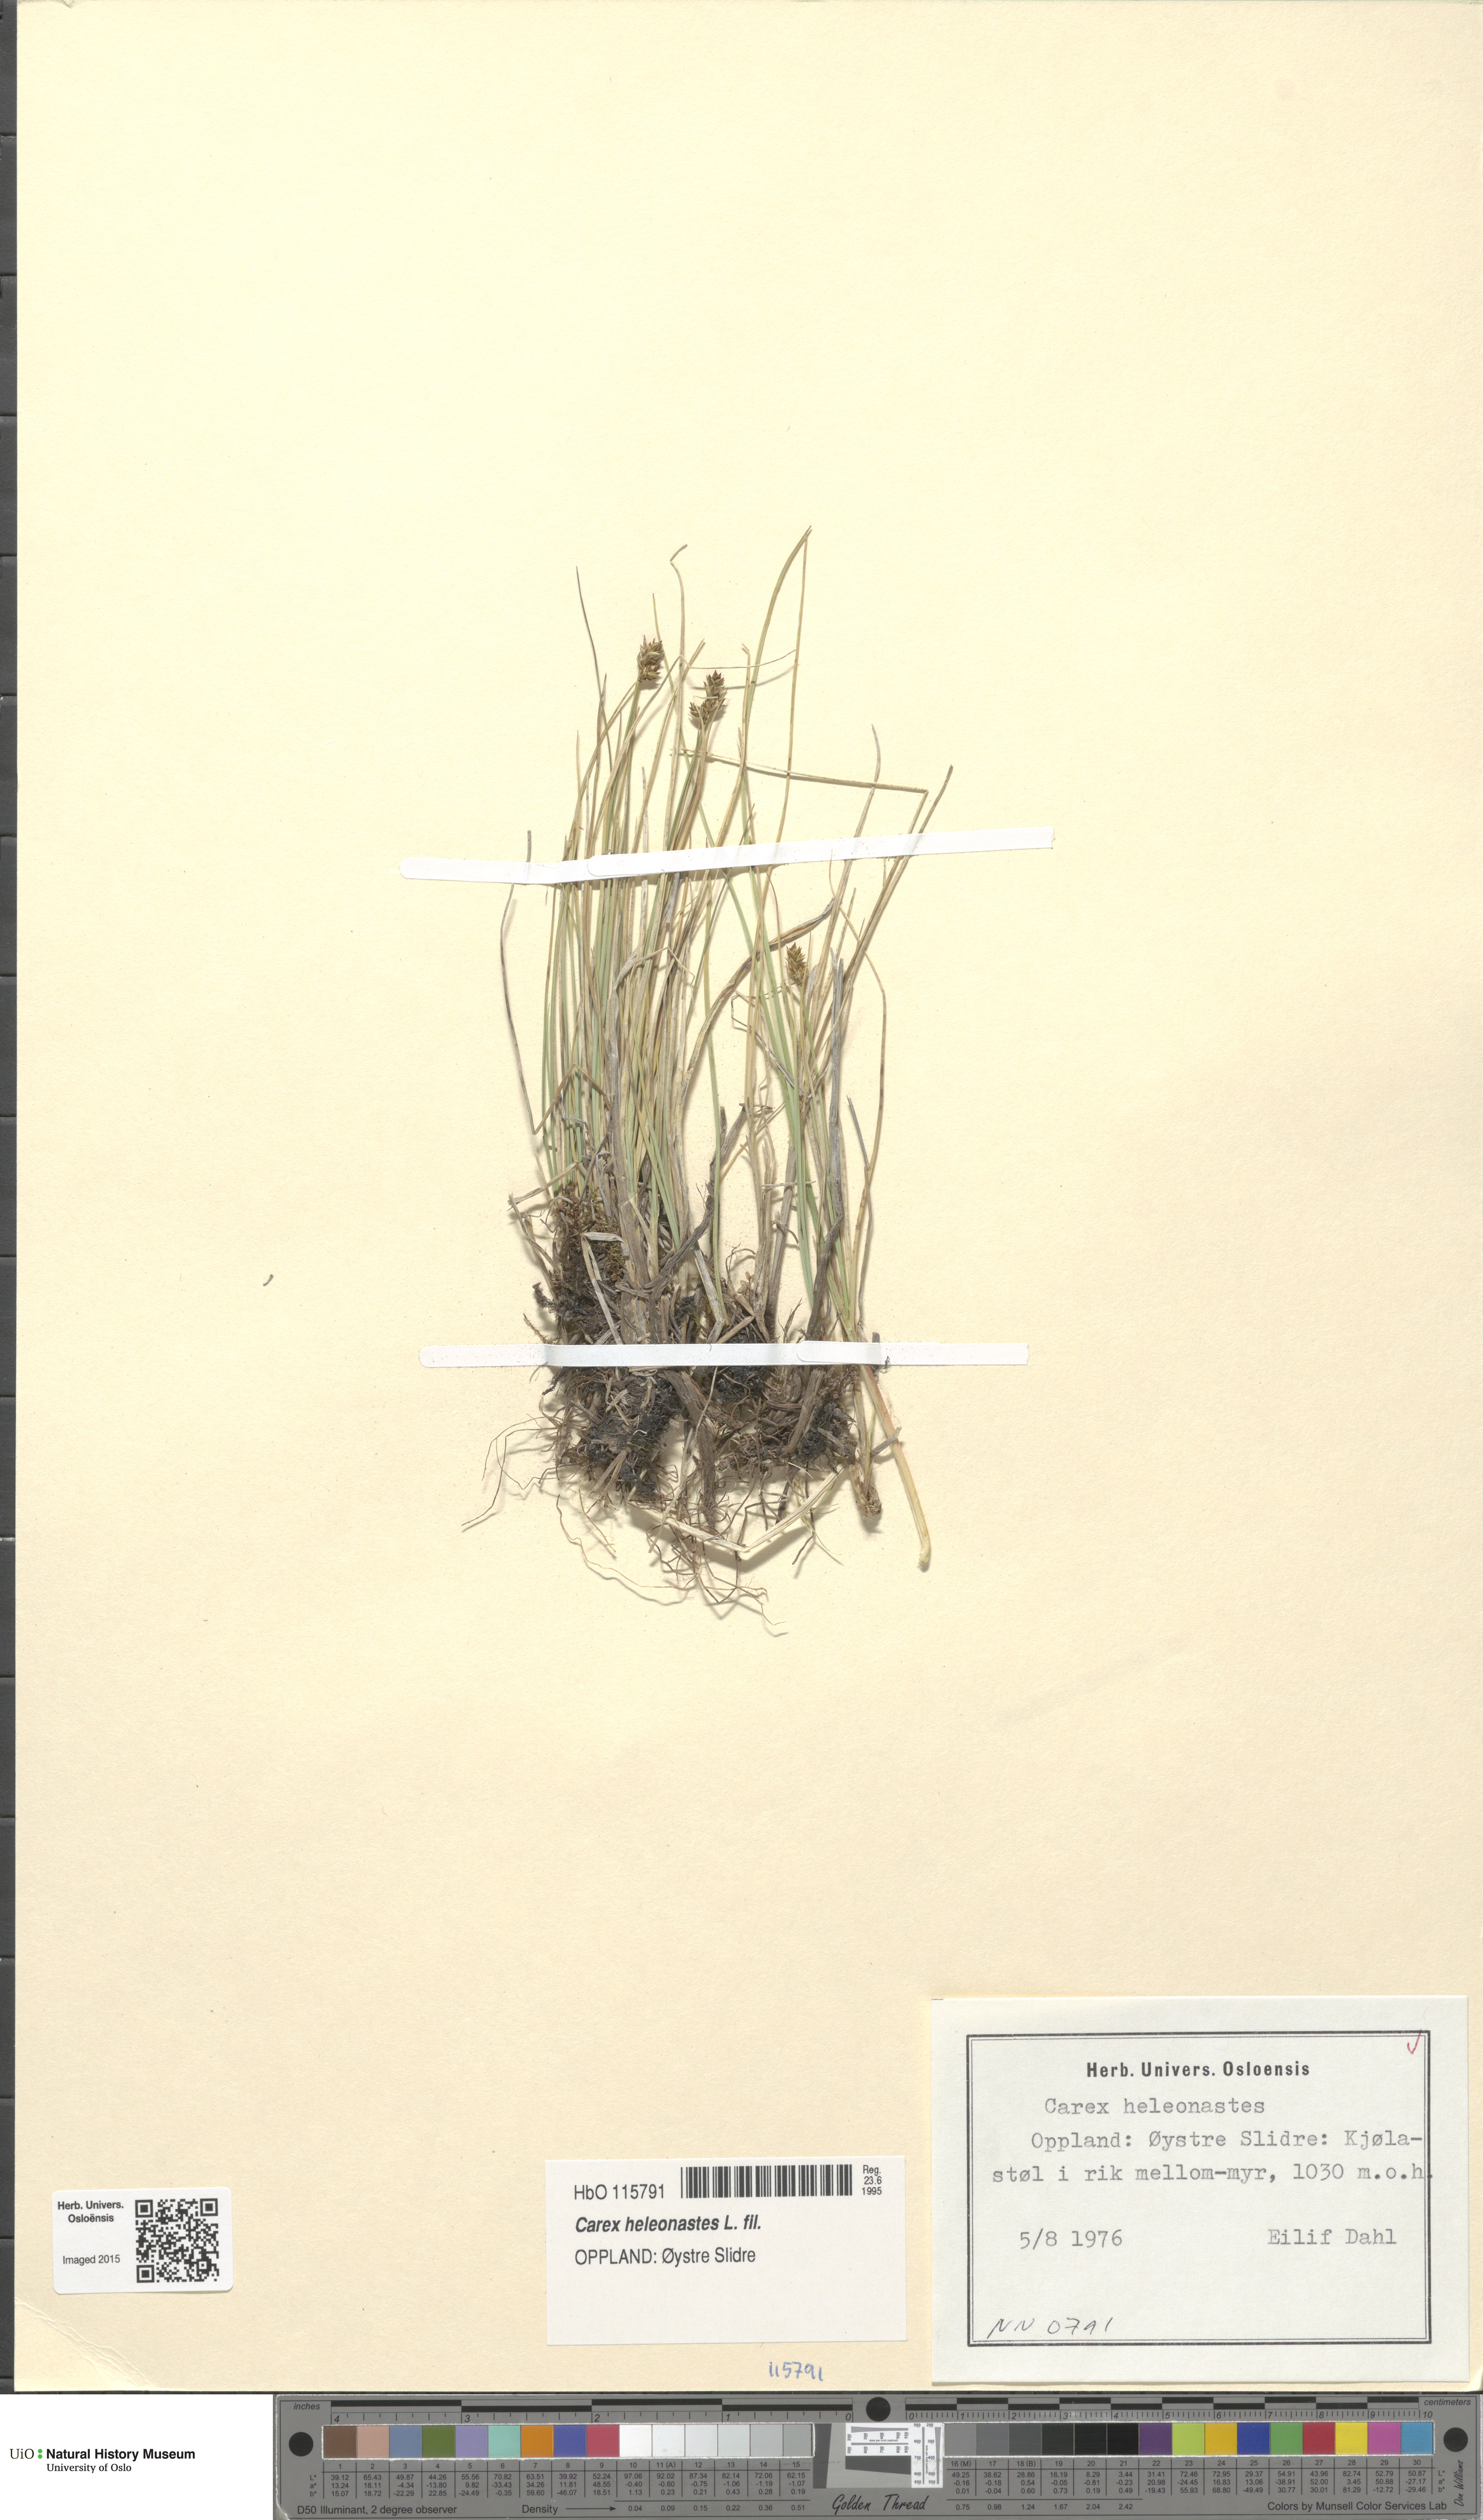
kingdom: Plantae
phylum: Tracheophyta
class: Liliopsida
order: Poales
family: Cyperaceae
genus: Carex
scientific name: Carex heleonastes
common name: Hudson bay sedge
